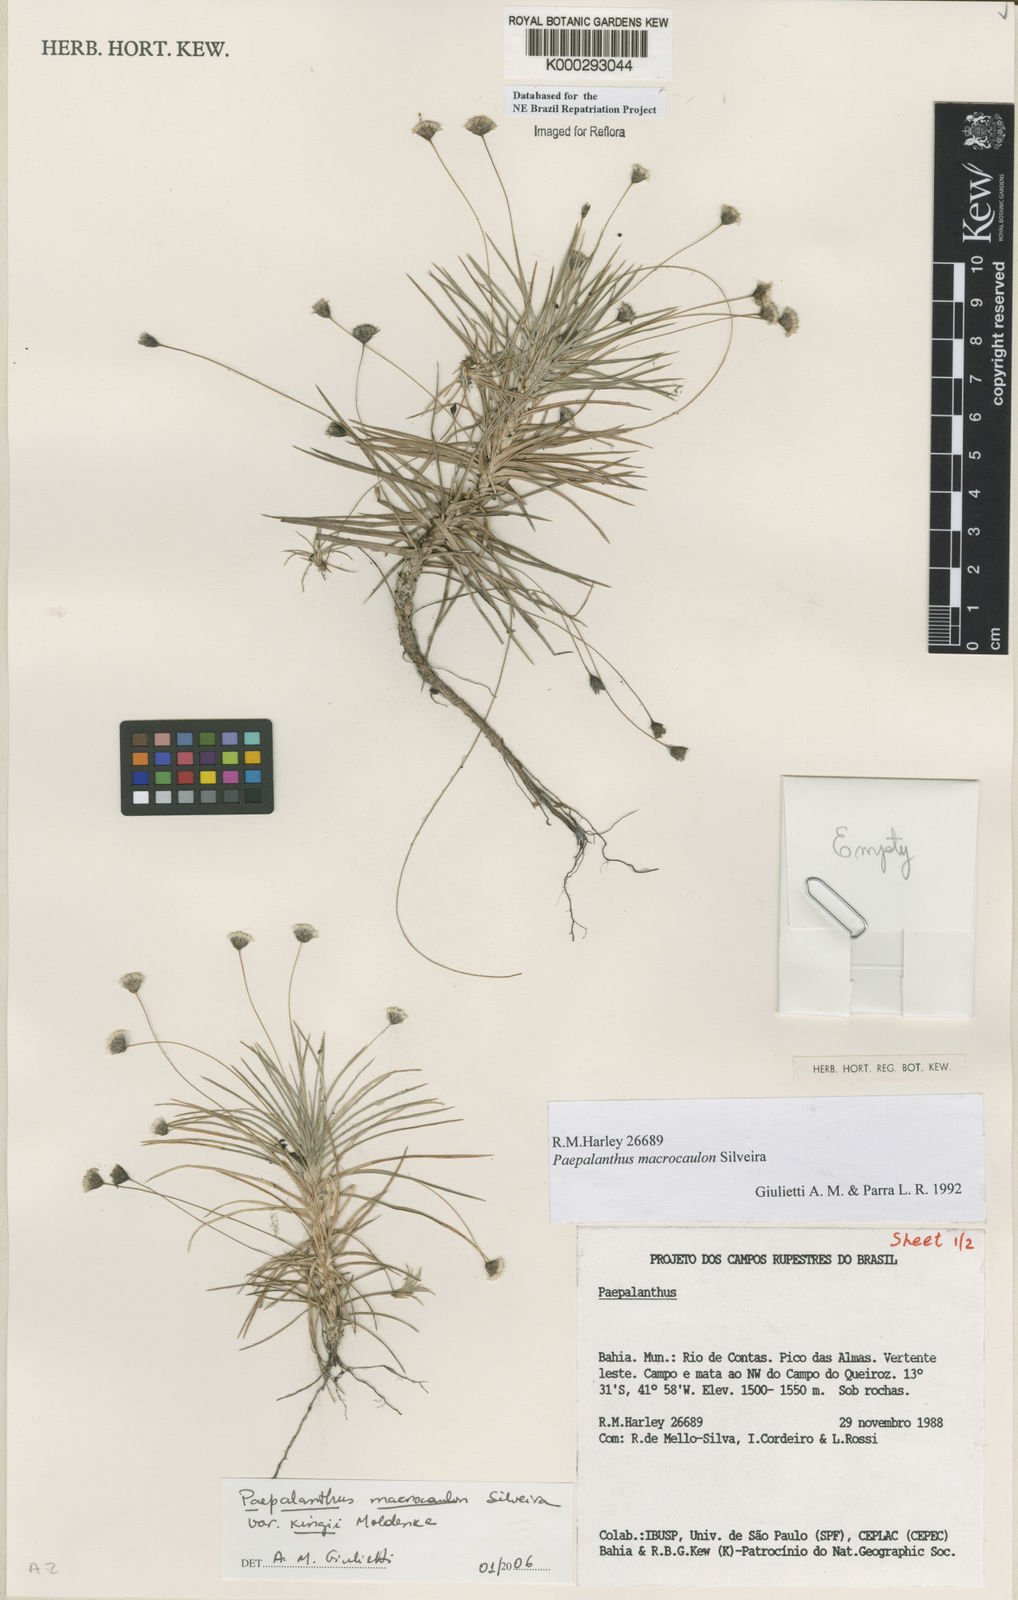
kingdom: Plantae
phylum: Tracheophyta
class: Liliopsida
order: Poales
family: Eriocaulaceae
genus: Paepalanthus
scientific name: Paepalanthus macrocaulon
